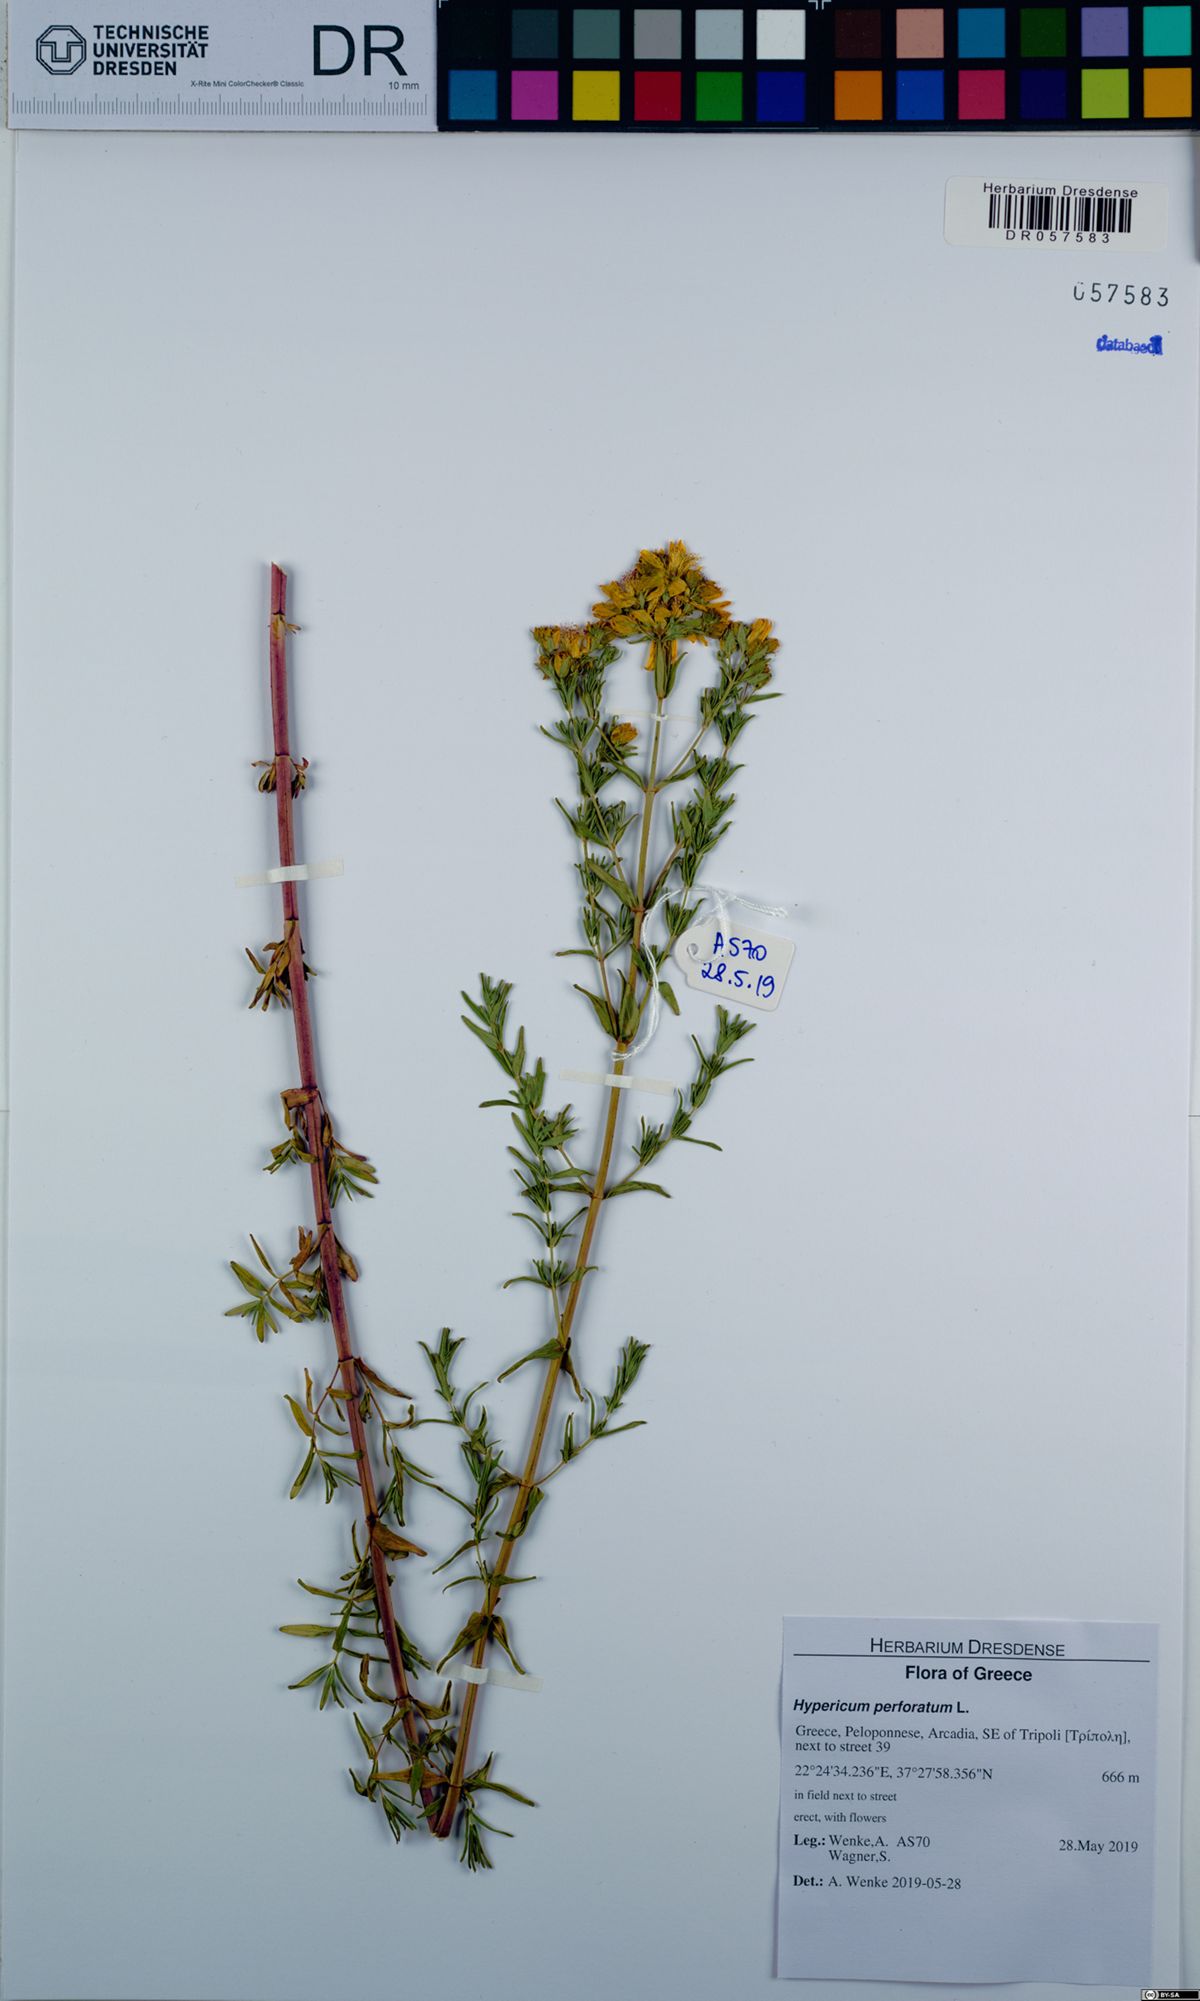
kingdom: Plantae
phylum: Tracheophyta
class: Magnoliopsida
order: Malpighiales
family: Hypericaceae
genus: Hypericum
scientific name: Hypericum perforatum
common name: Common st. johnswort
